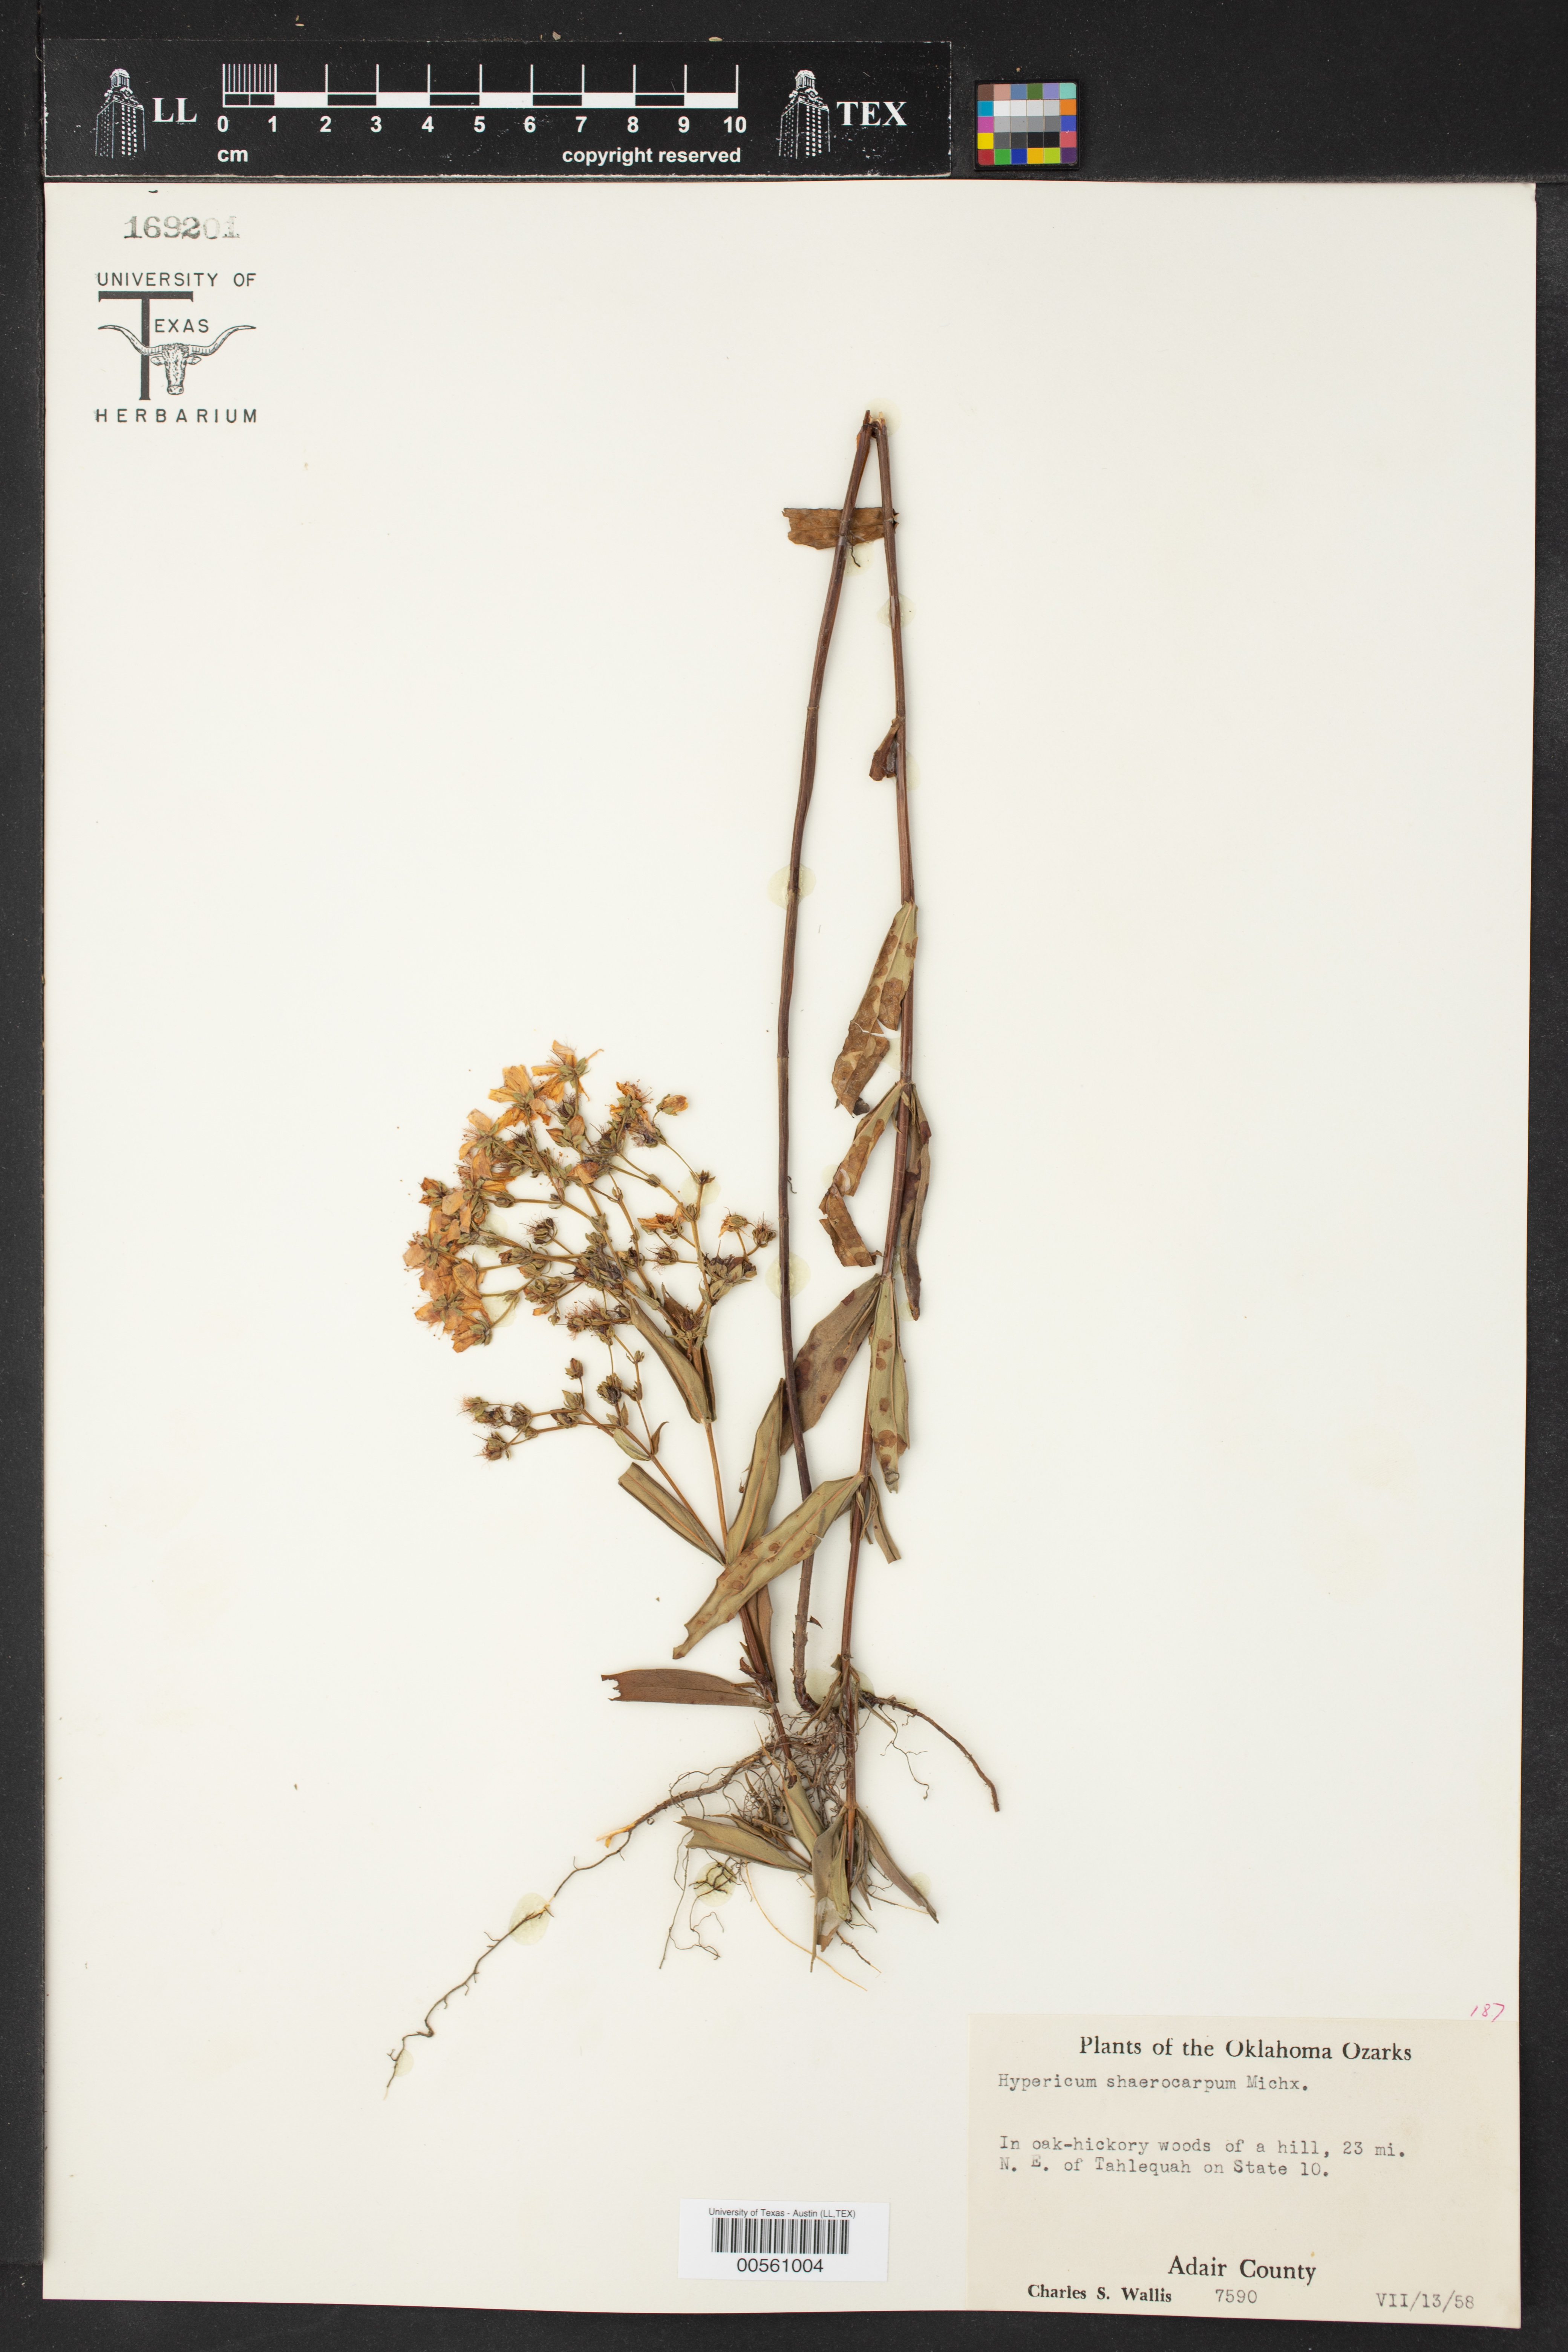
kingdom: Plantae
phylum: Tracheophyta
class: Magnoliopsida
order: Malpighiales
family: Hypericaceae
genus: Hypericum
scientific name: Hypericum sphaerocarpum
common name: Round-fruited st. john's-wort
